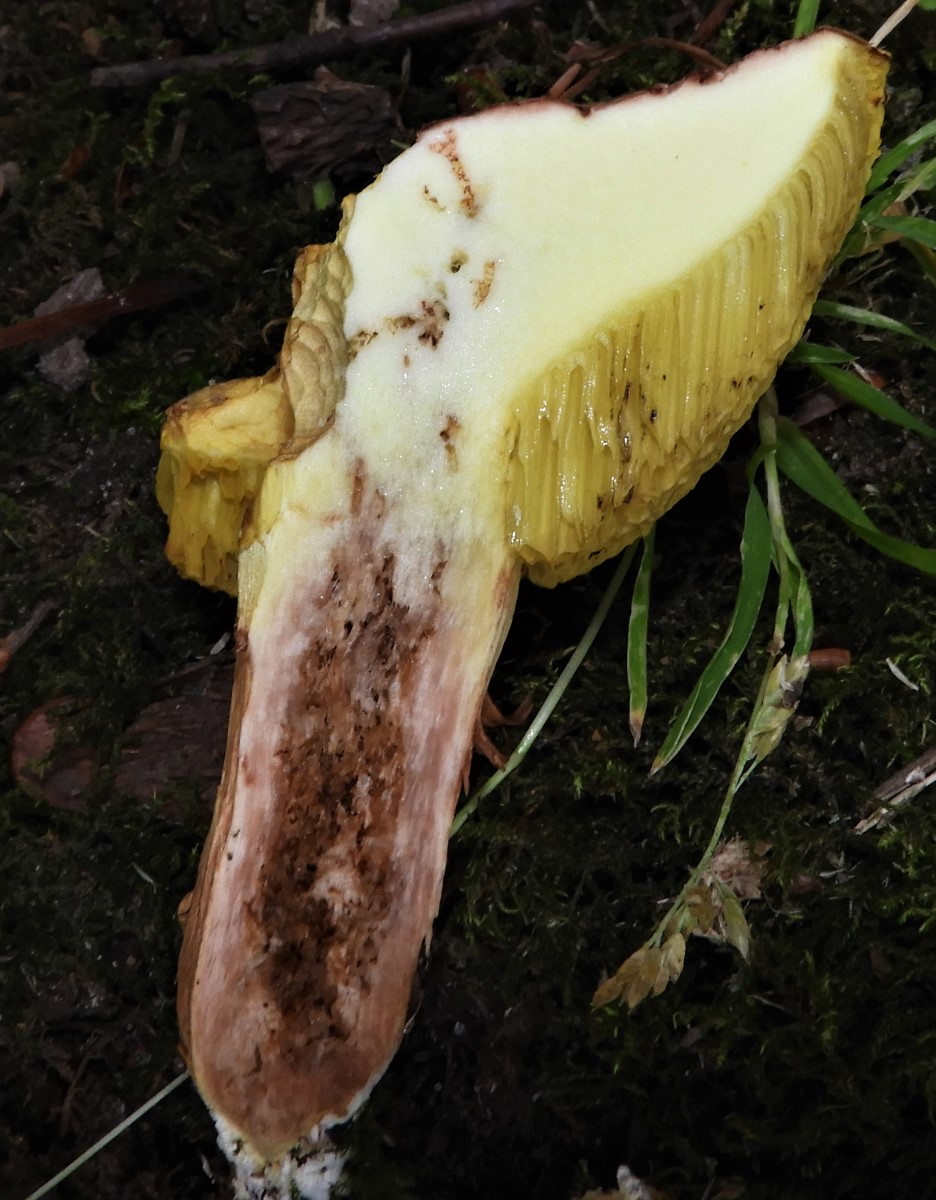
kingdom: Fungi
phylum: Basidiomycota
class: Agaricomycetes
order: Boletales
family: Boletaceae
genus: Xerocomus
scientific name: Xerocomus
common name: filtrørhat
